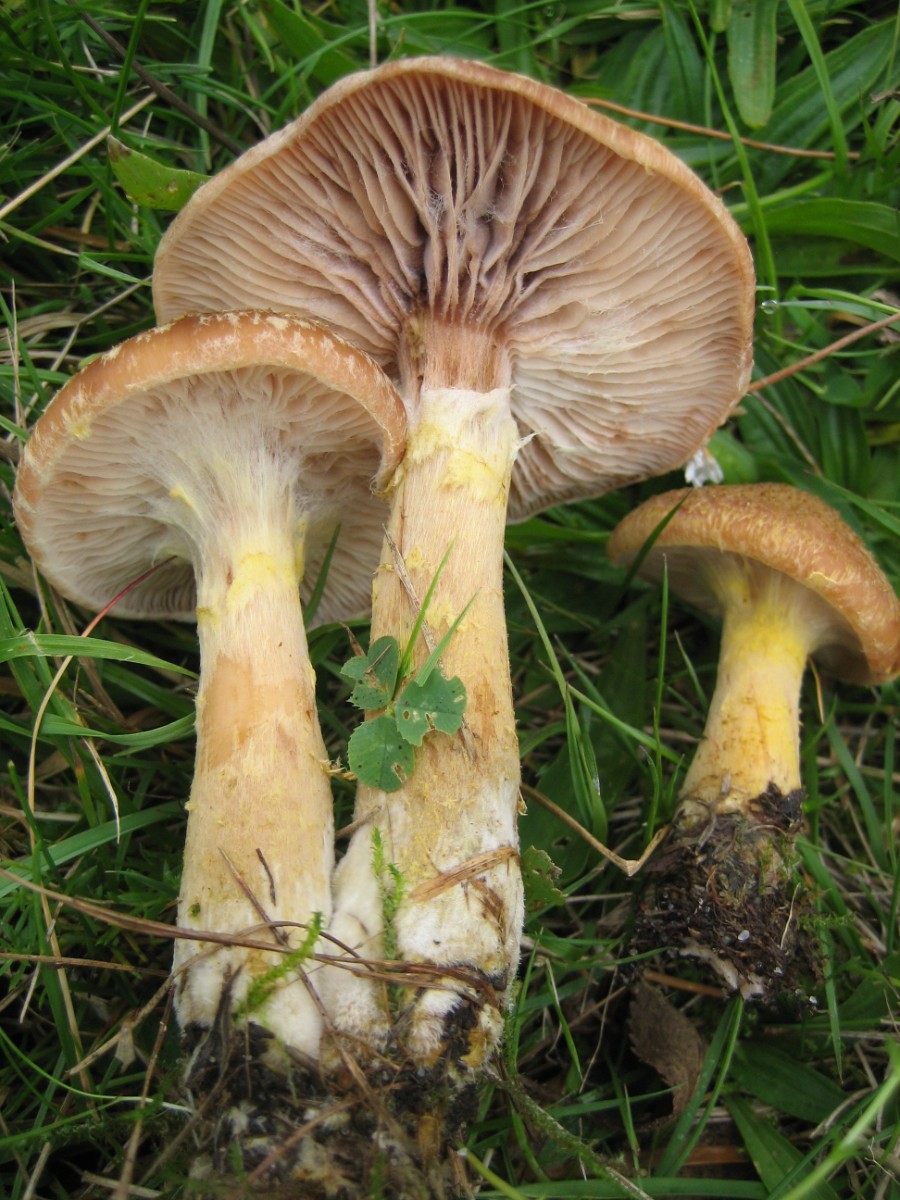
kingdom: Fungi
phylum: Basidiomycota
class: Agaricomycetes
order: Agaricales
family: Physalacriaceae
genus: Armillaria
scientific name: Armillaria lutea
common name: køllestokket honningsvamp
